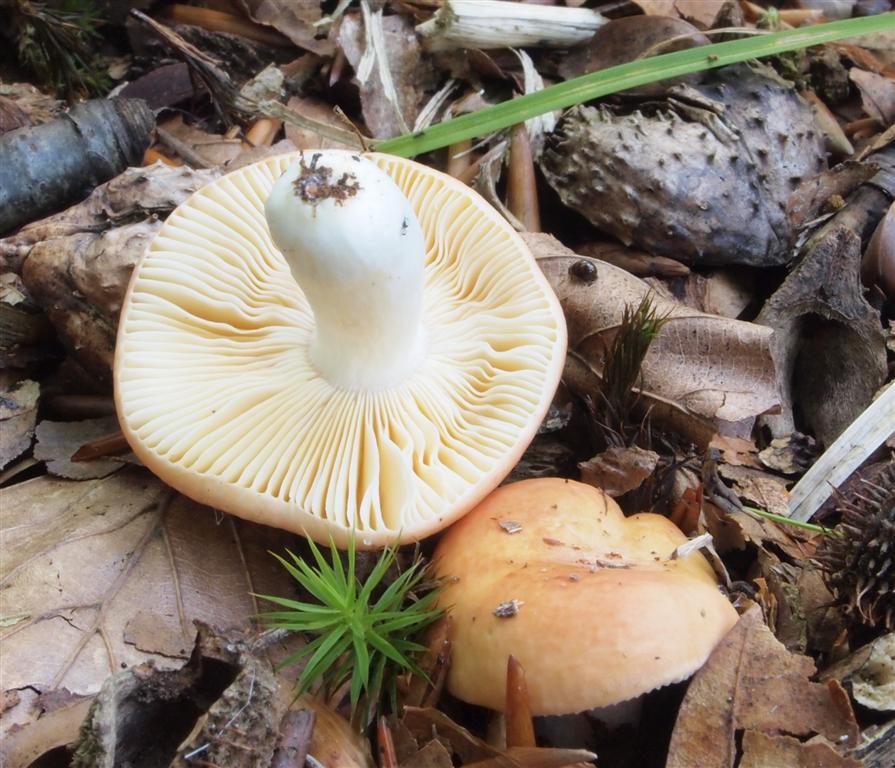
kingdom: Fungi
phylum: Basidiomycota
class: Agaricomycetes
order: Russulales
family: Russulaceae
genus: Russula
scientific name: Russula risigallina
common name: abrikos-skørhat
